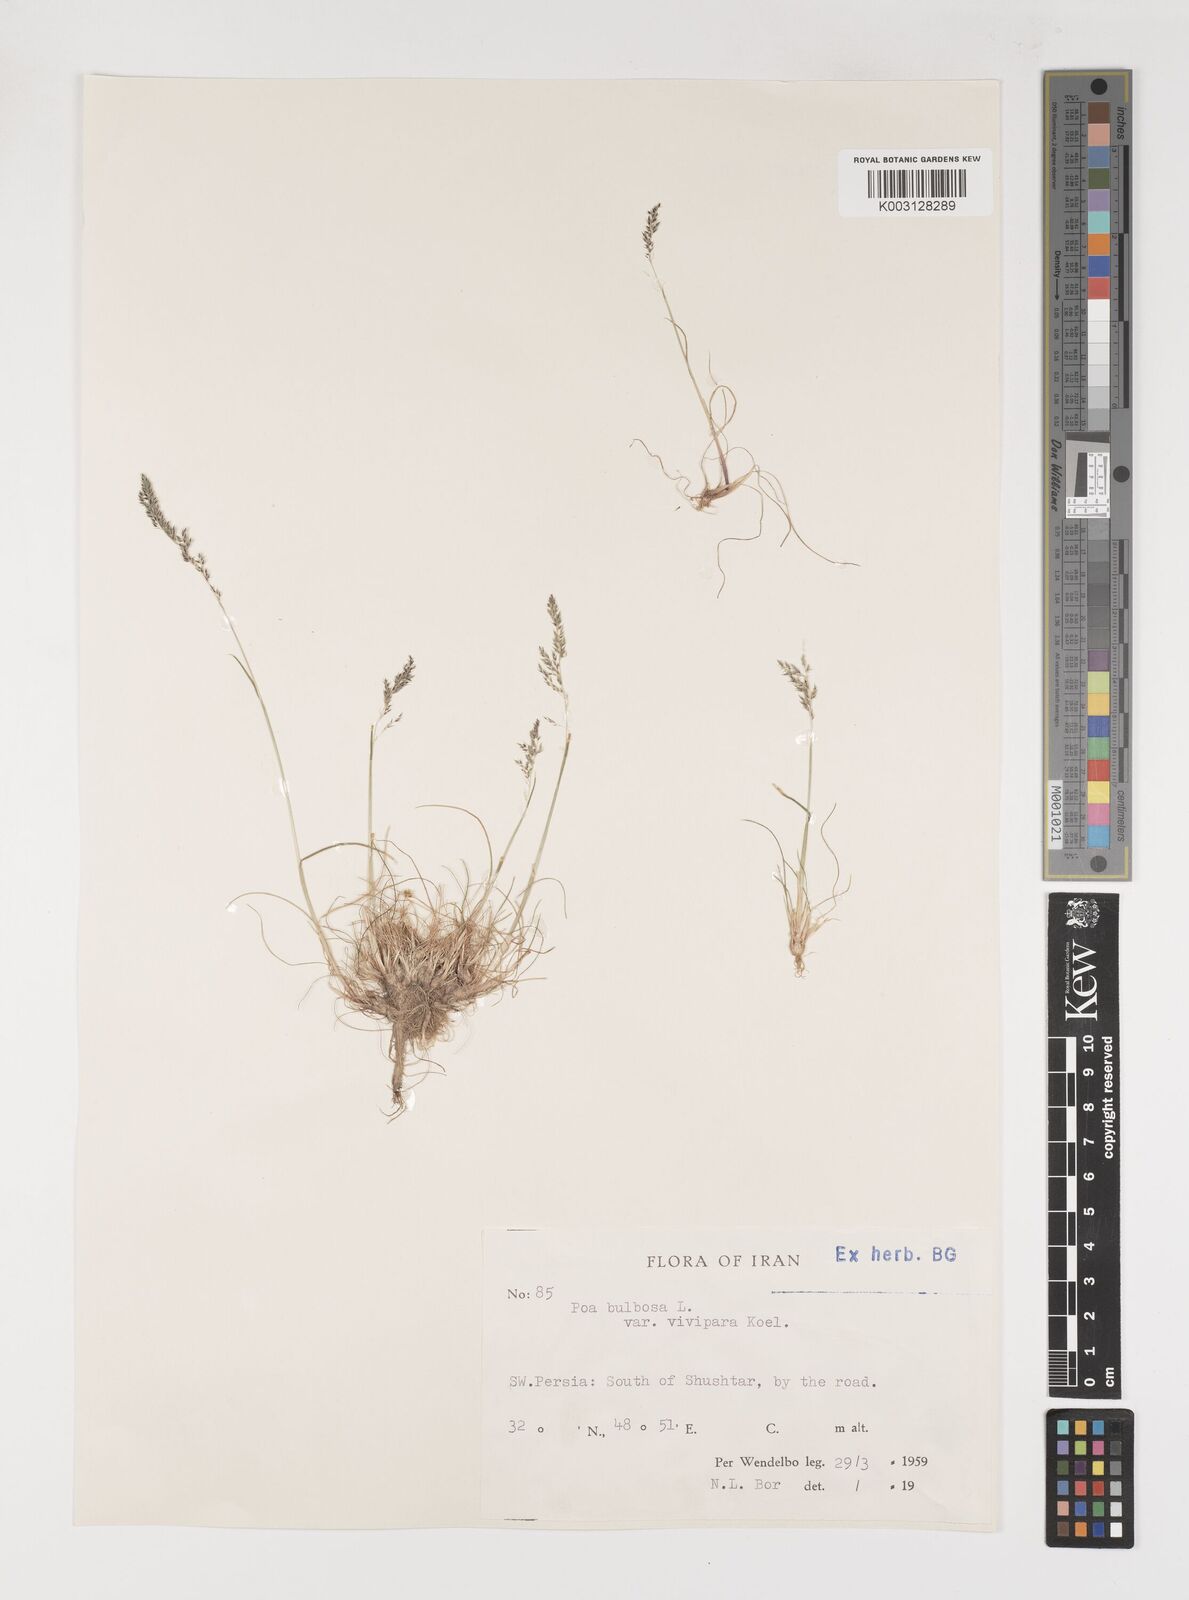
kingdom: Plantae
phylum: Tracheophyta
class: Liliopsida
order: Poales
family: Poaceae
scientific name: Poaceae
